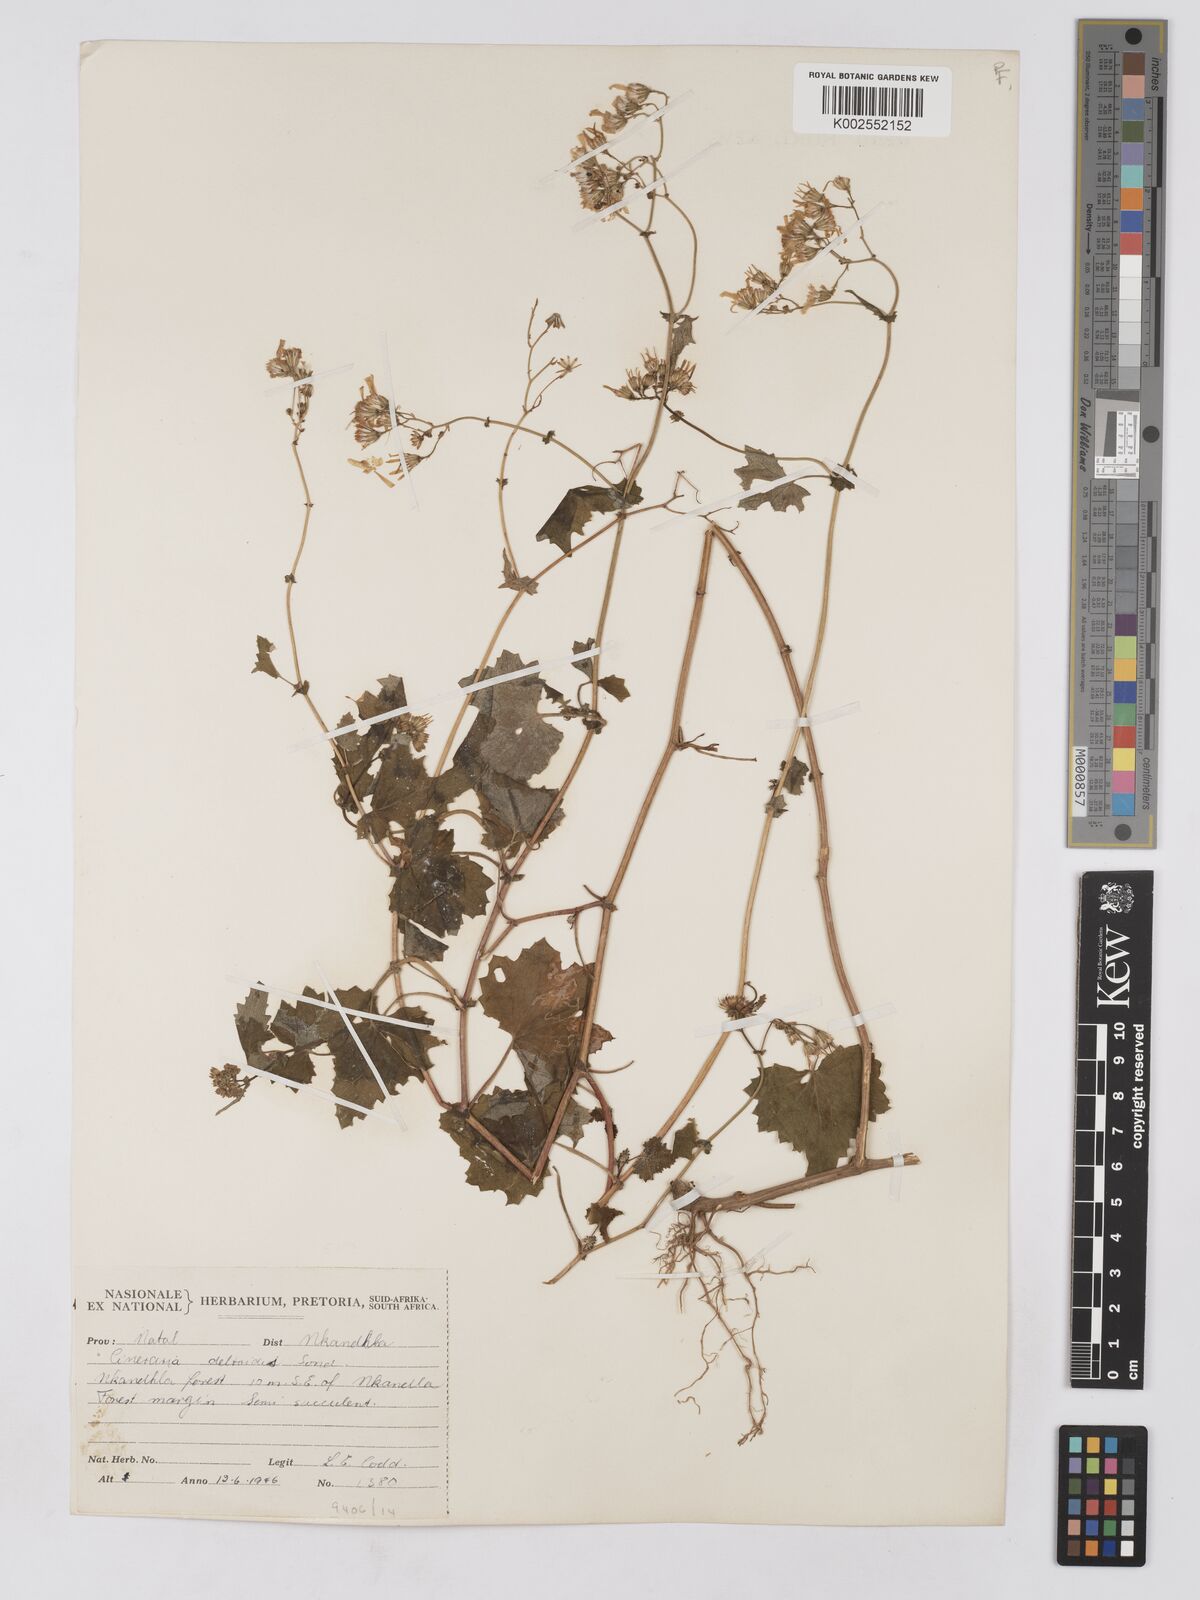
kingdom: Plantae
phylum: Tracheophyta
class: Magnoliopsida
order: Asterales
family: Asteraceae
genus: Cineraria
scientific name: Cineraria deltoidea
